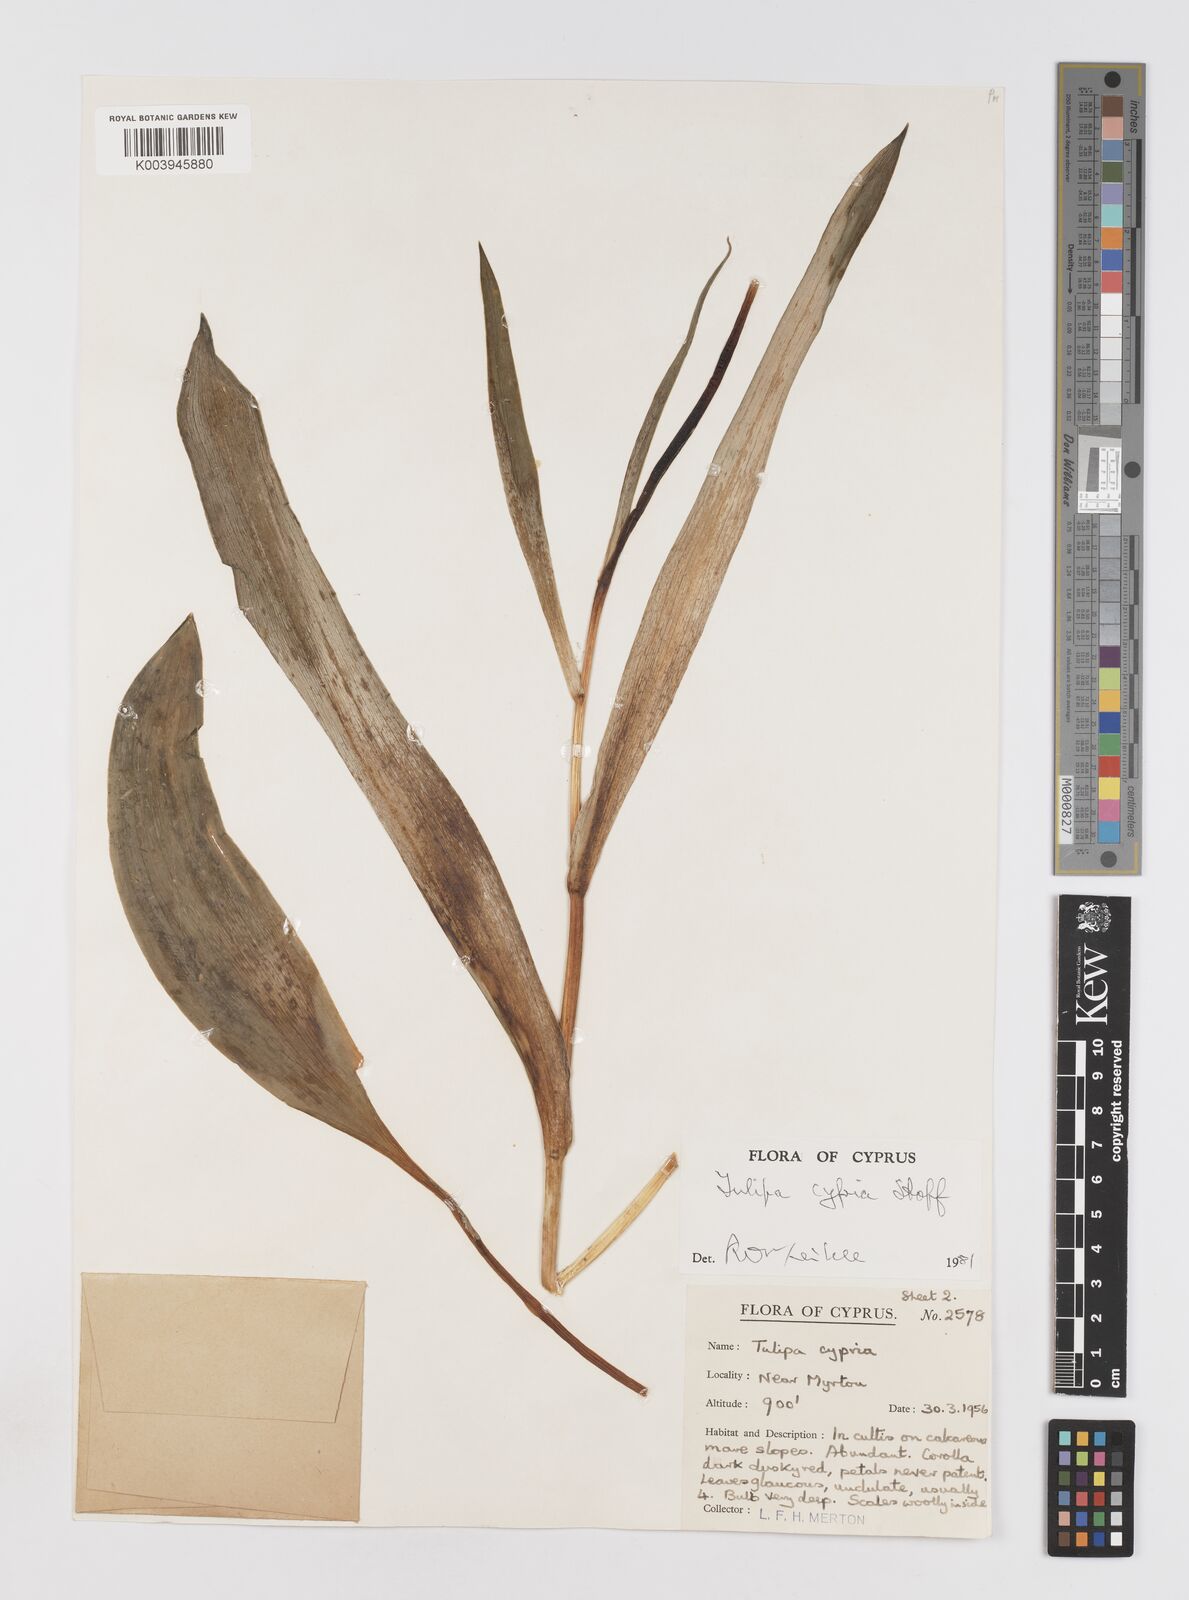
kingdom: Plantae
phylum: Tracheophyta
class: Liliopsida
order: Liliales
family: Liliaceae
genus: Tulipa
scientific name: Tulipa cypria
